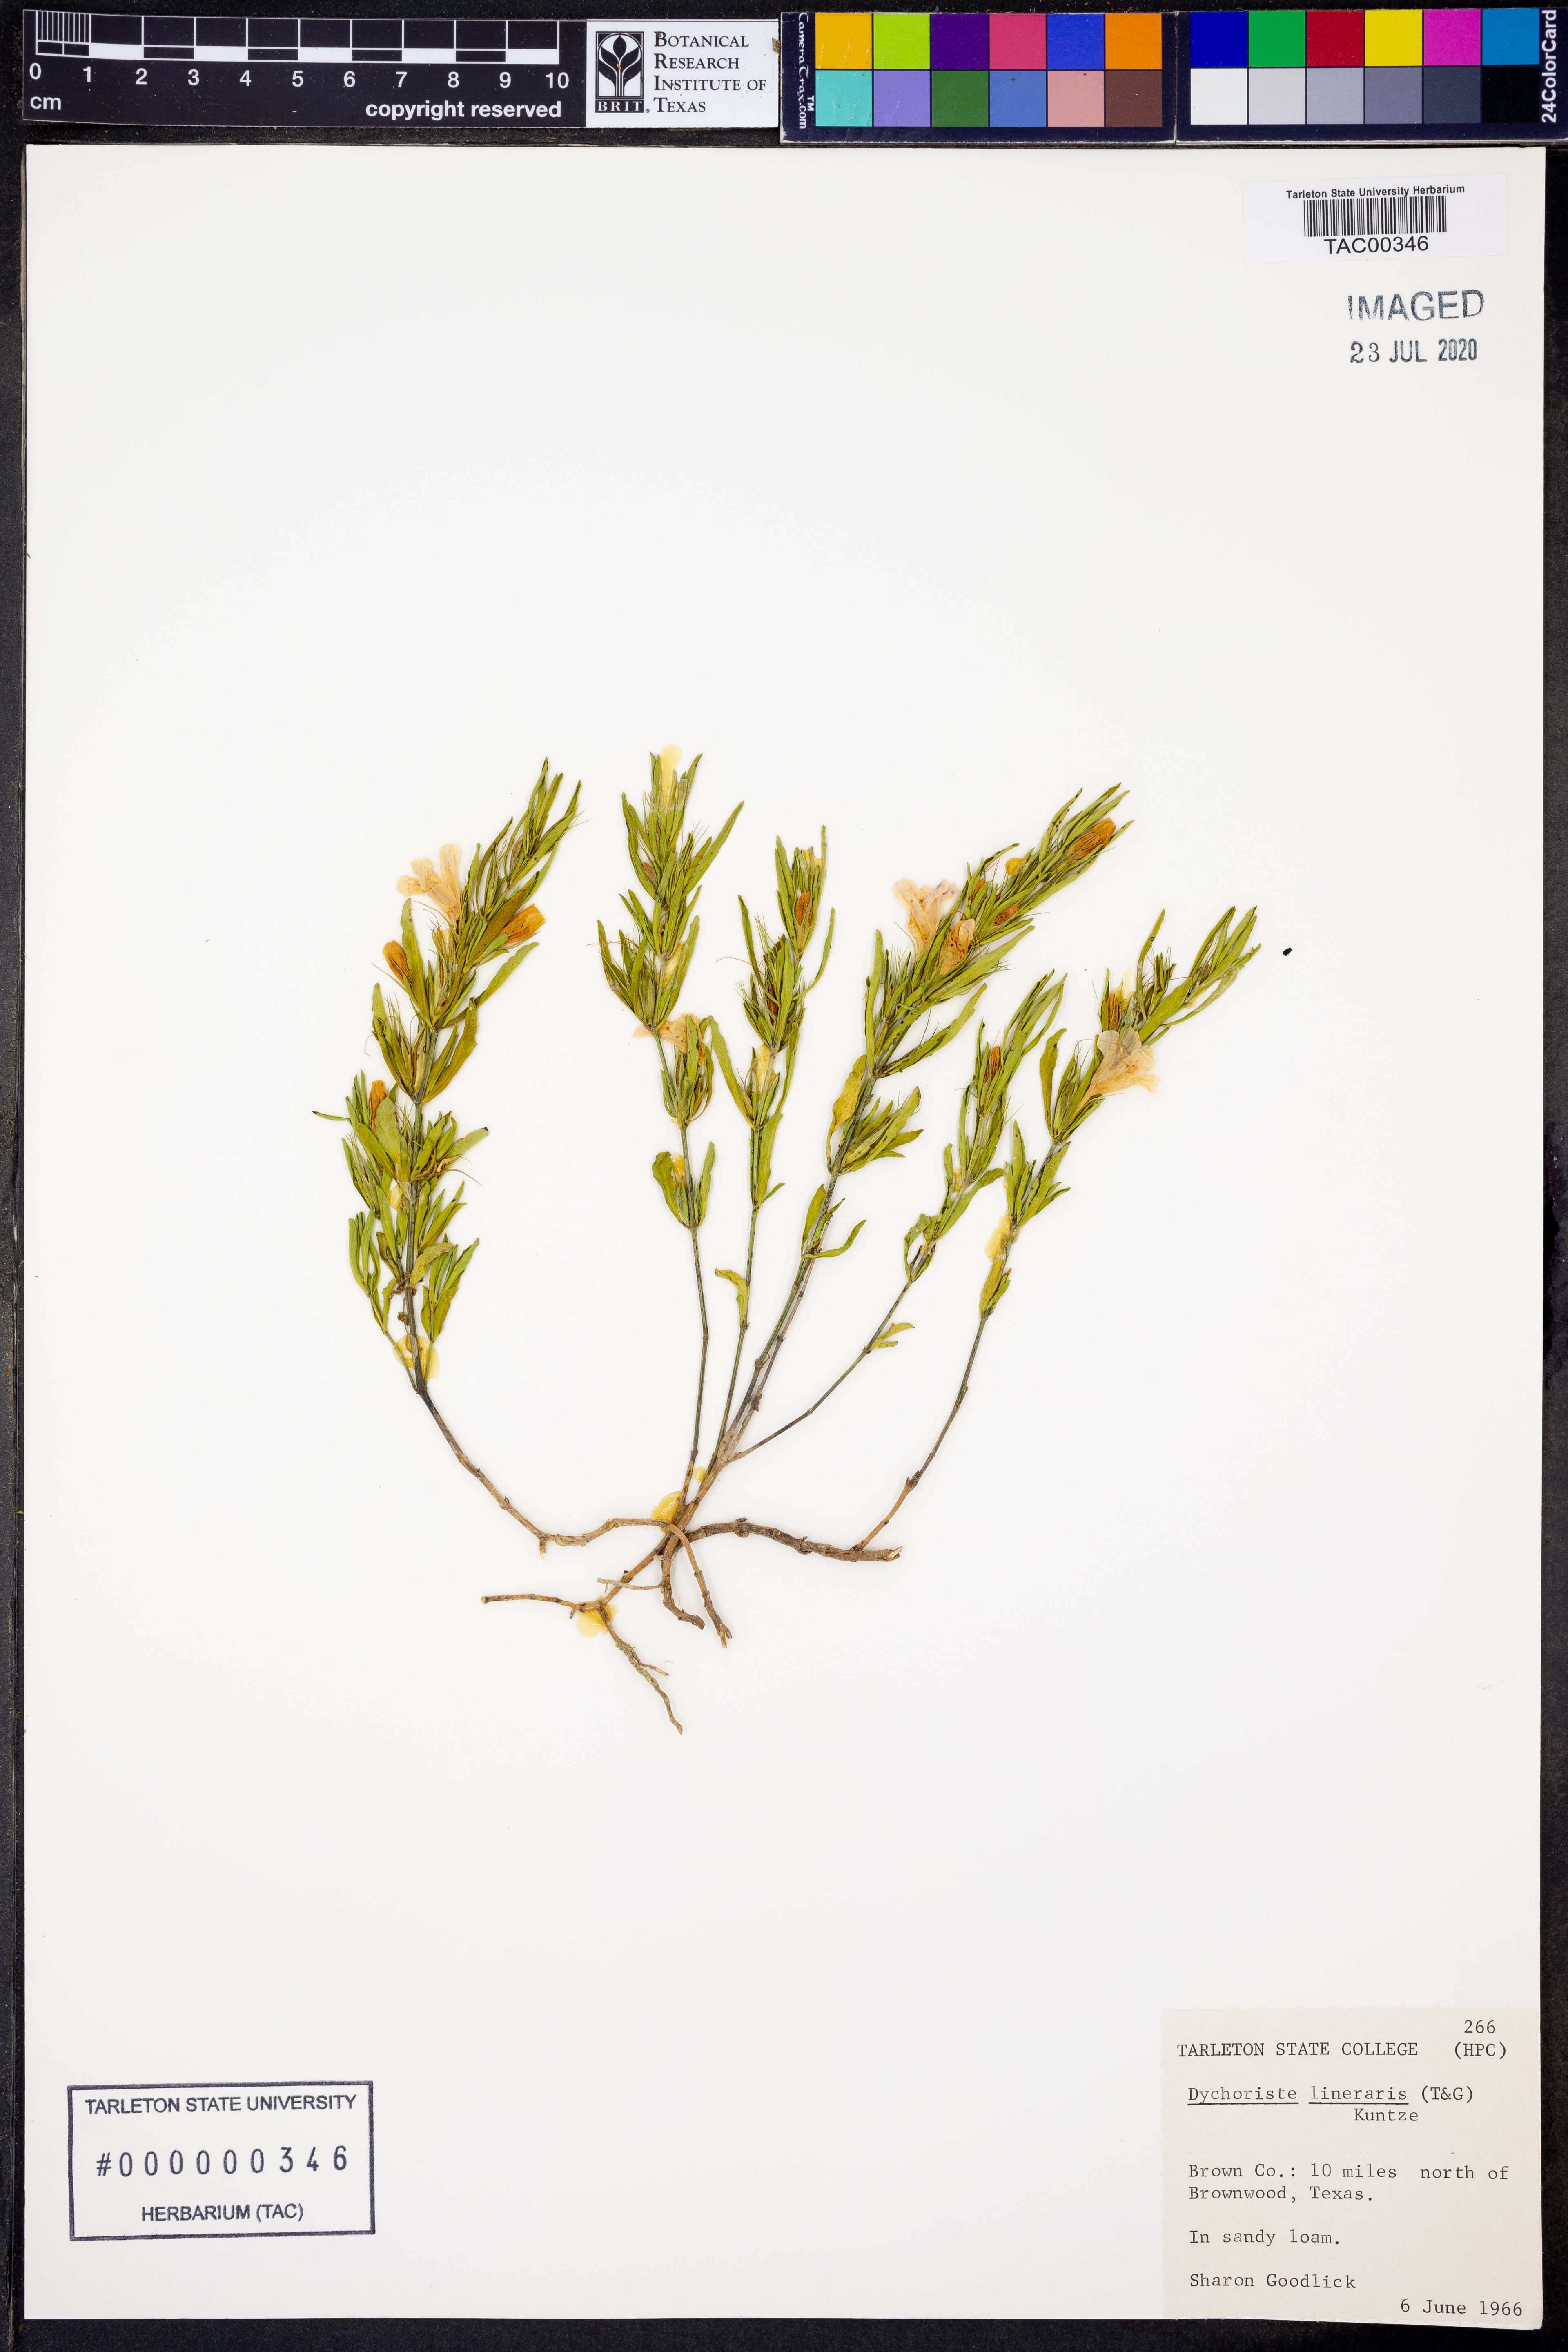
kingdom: Plantae
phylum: Tracheophyta
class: Magnoliopsida
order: Lamiales
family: Acanthaceae
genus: Dyschoriste
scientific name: Dyschoriste linearis
